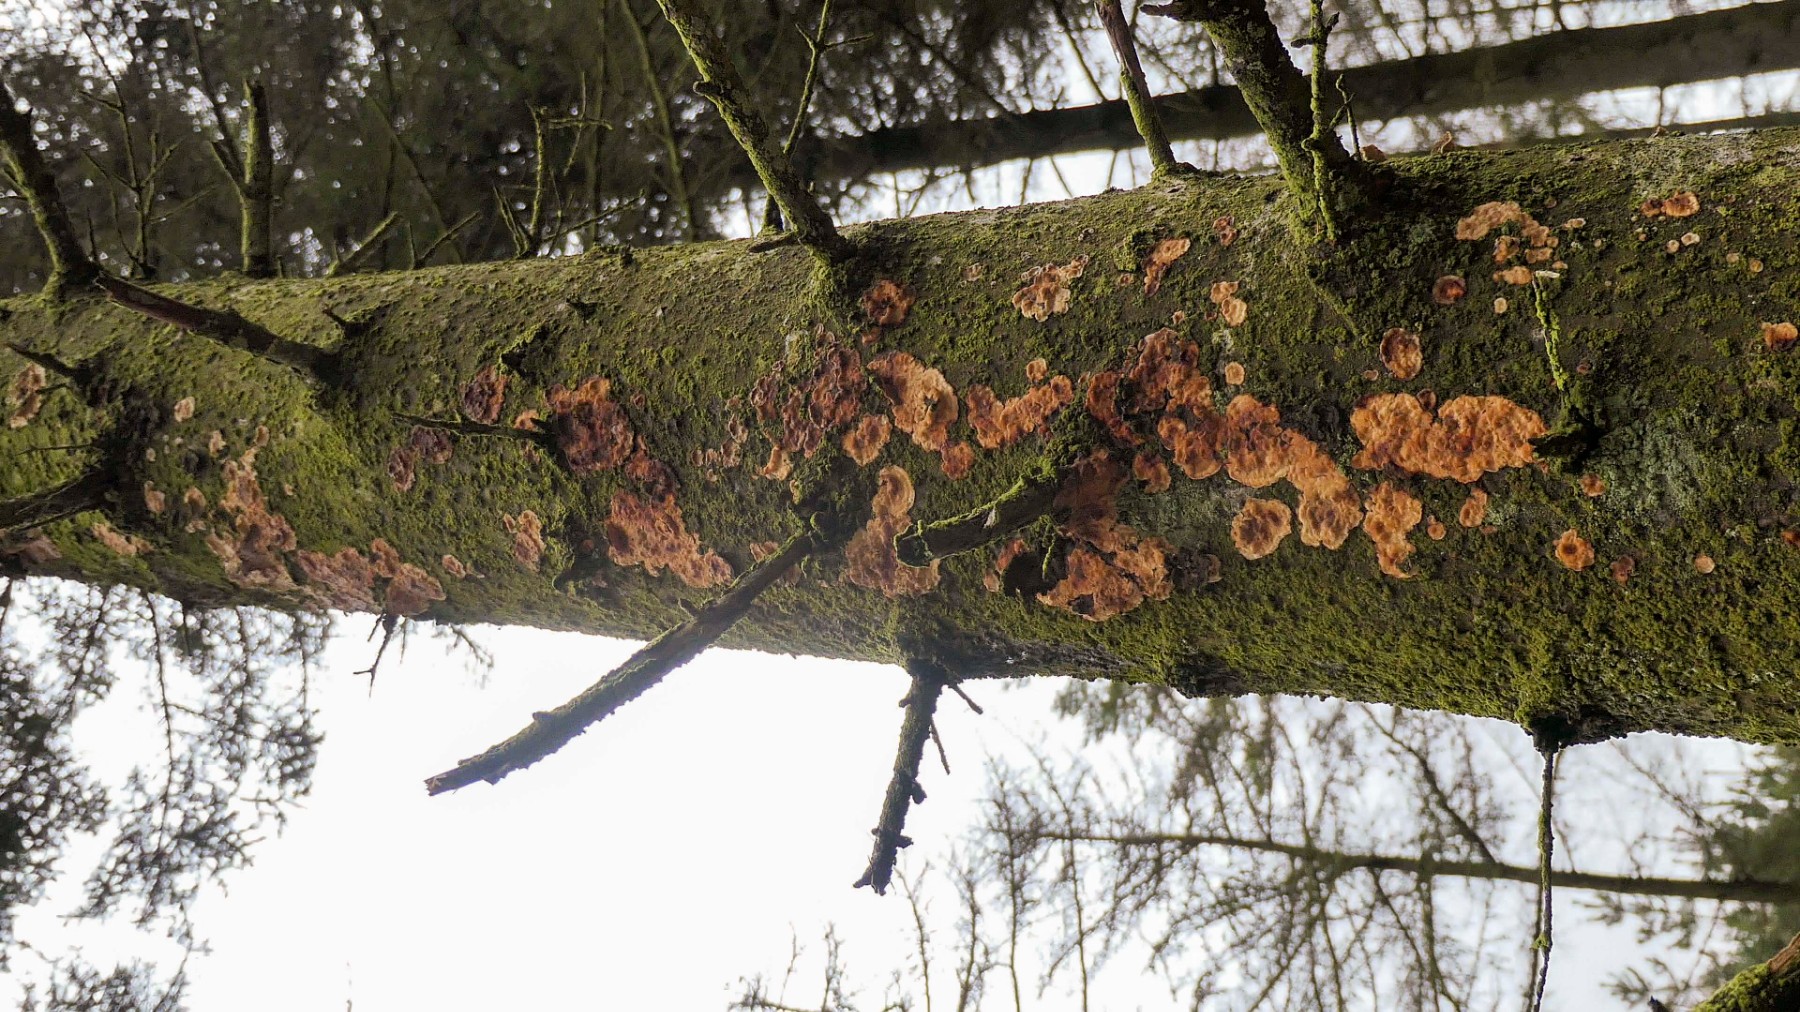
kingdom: Fungi
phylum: Basidiomycota
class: Agaricomycetes
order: Polyporales
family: Dacryobolaceae
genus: Dacryobolus
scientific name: Dacryobolus karstenii
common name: glat vulkanskorpe
